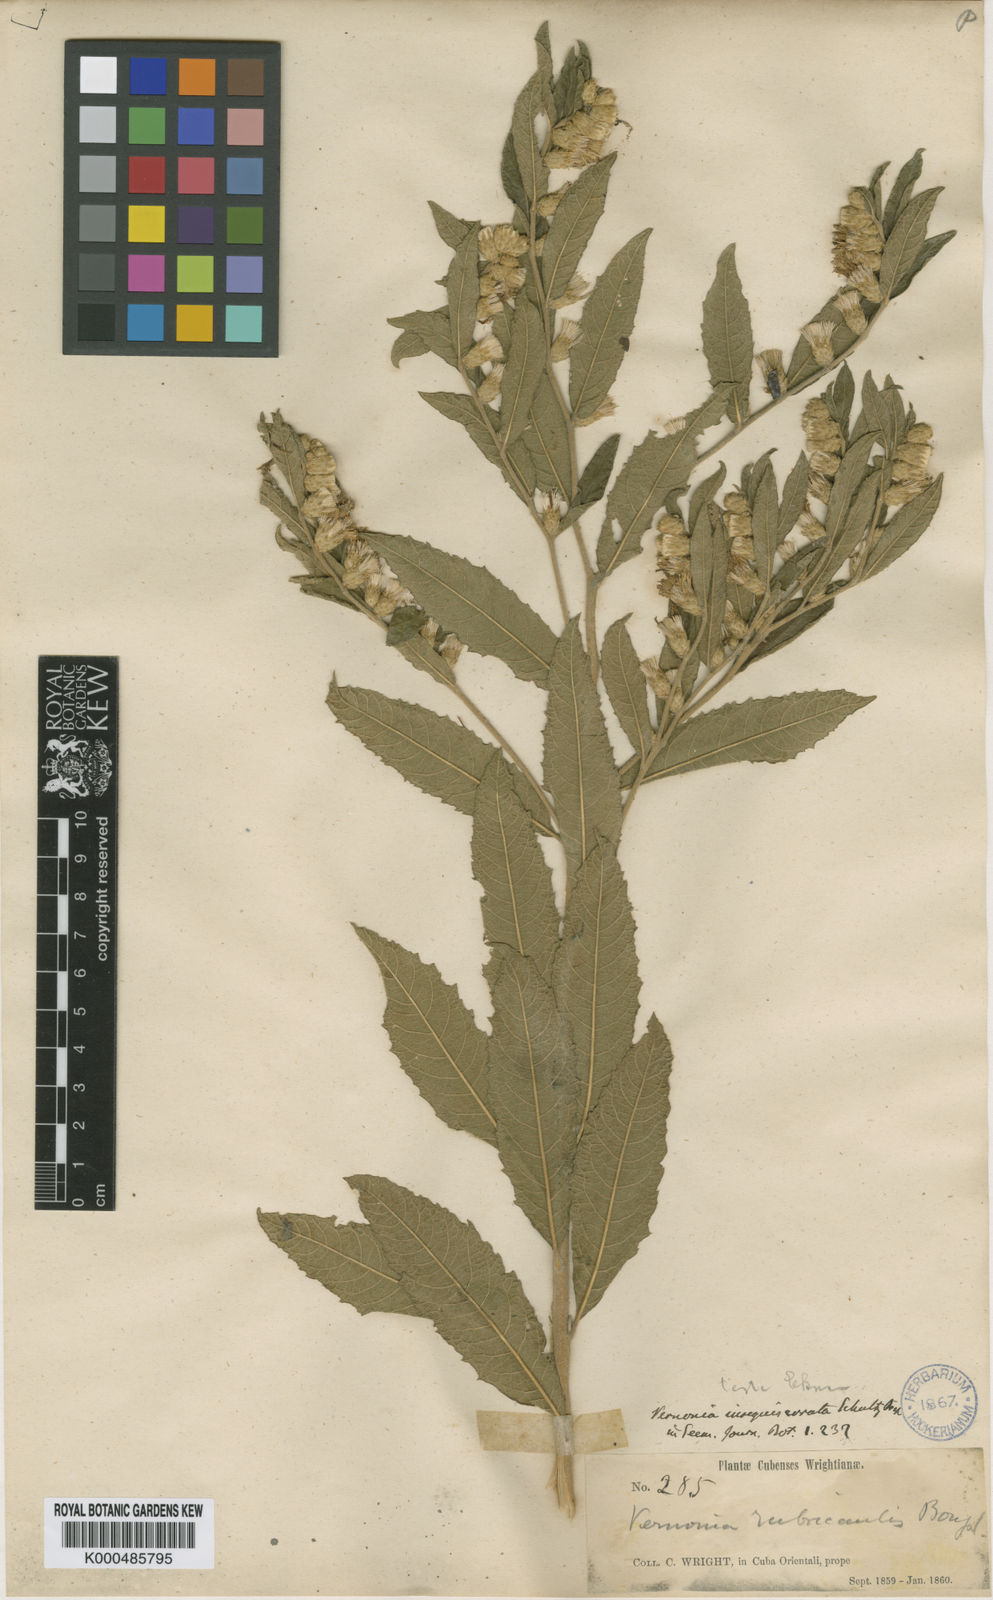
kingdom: Plantae
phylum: Tracheophyta
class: Magnoliopsida
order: Asterales
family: Asteraceae
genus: Lepidaploa
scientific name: Lepidaploa sagrana
